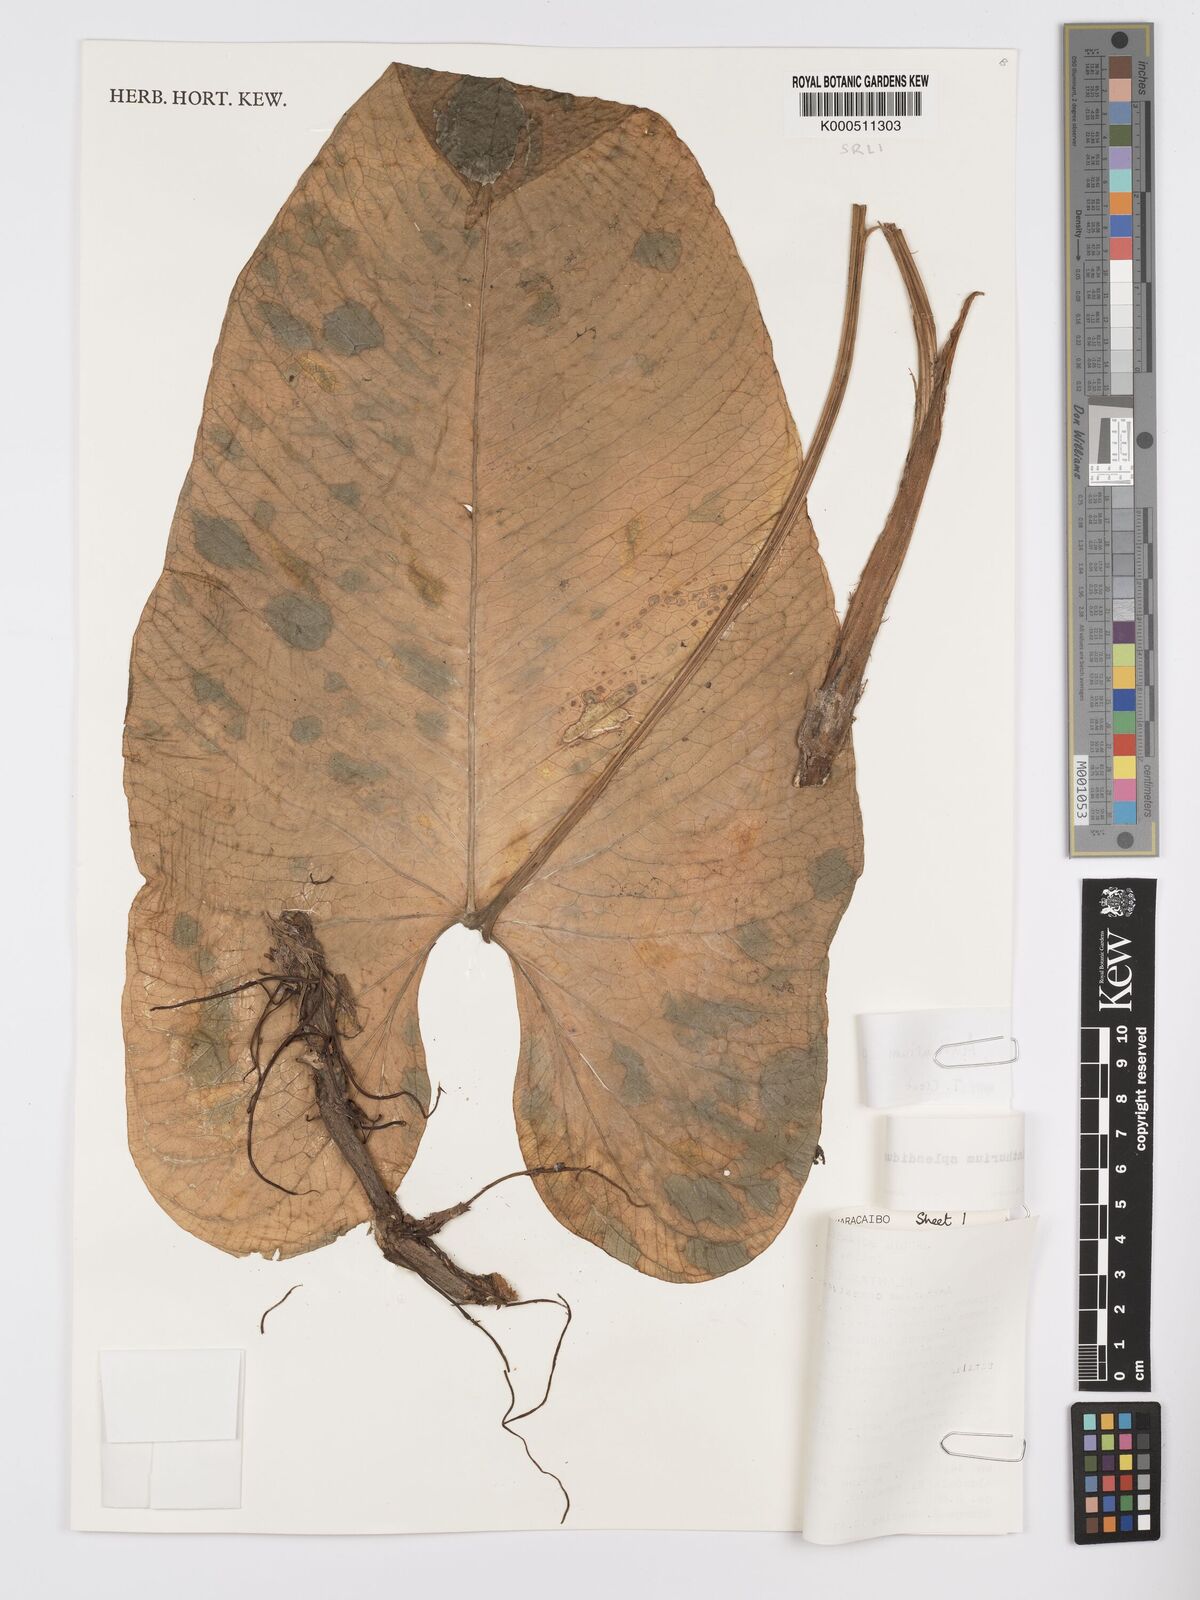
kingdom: Plantae
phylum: Tracheophyta
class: Liliopsida
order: Alismatales
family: Araceae
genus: Anthurium
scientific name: Anthurium puberulinervium
